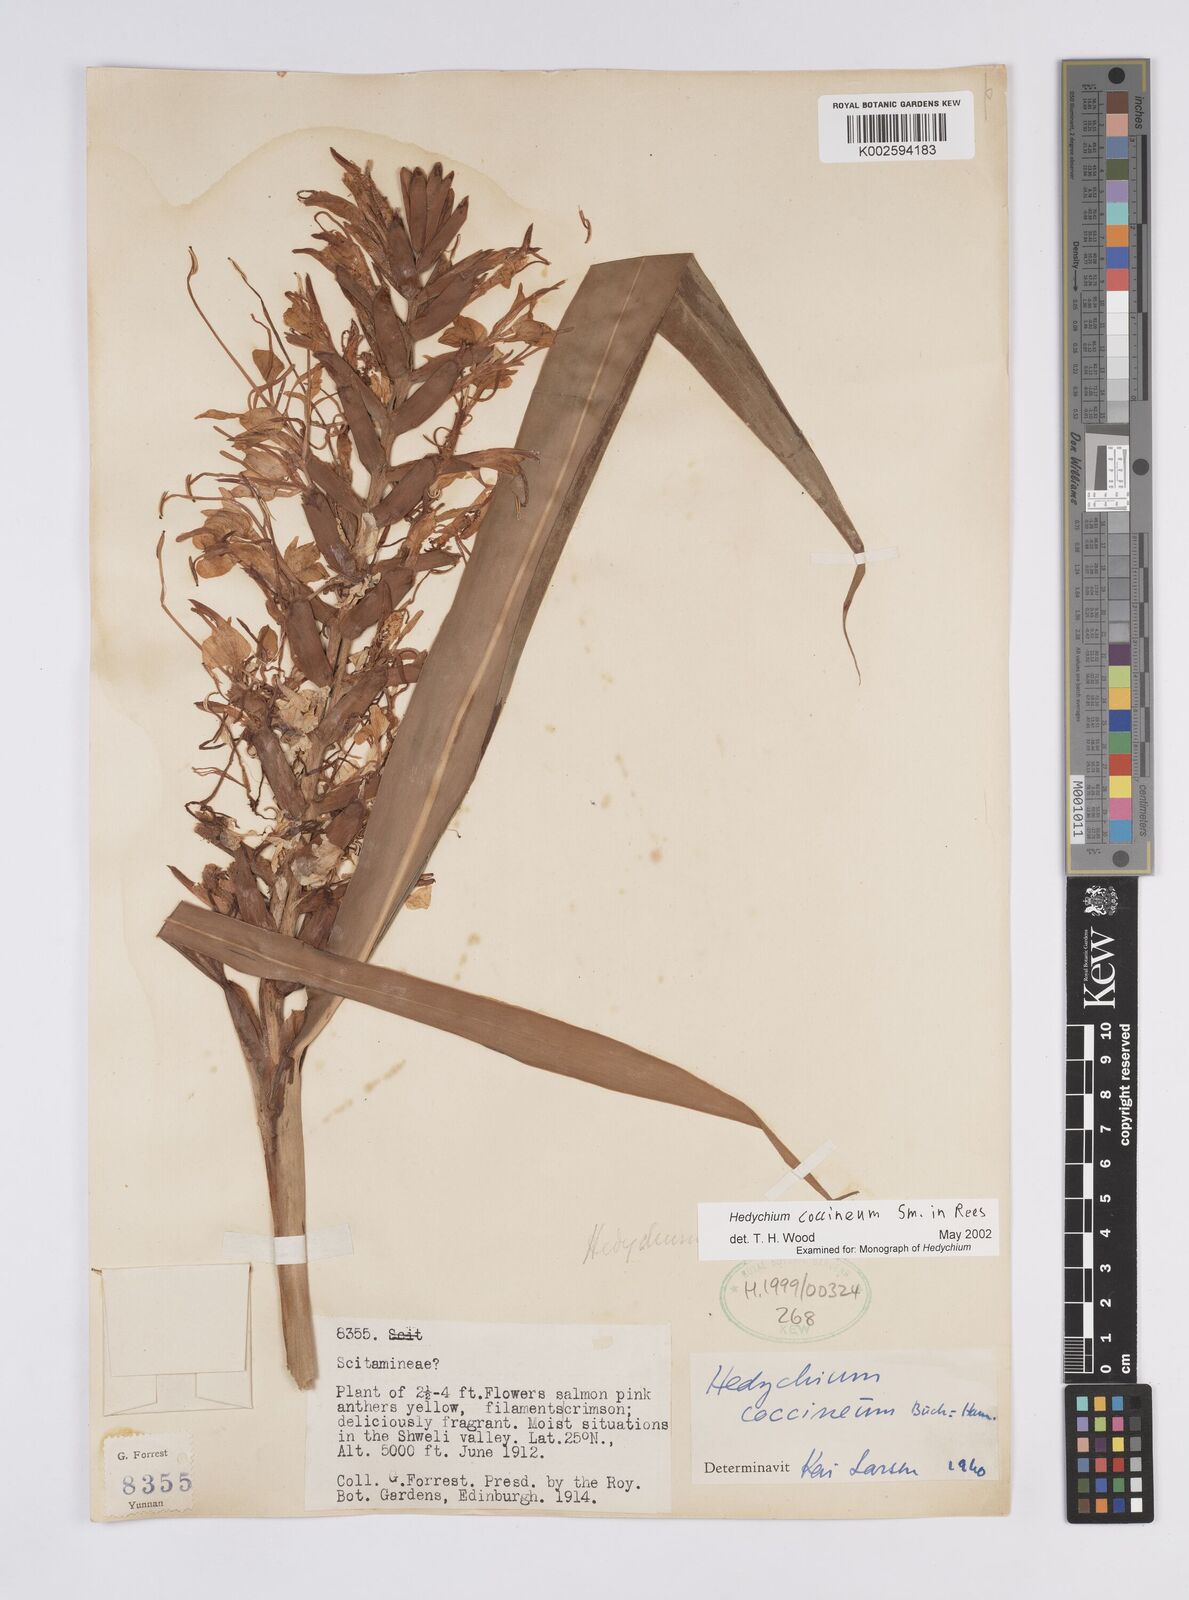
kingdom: Plantae
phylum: Tracheophyta
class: Liliopsida
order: Zingiberales
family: Zingiberaceae
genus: Hedychium
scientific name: Hedychium coccineum
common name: Red ginger-lily
